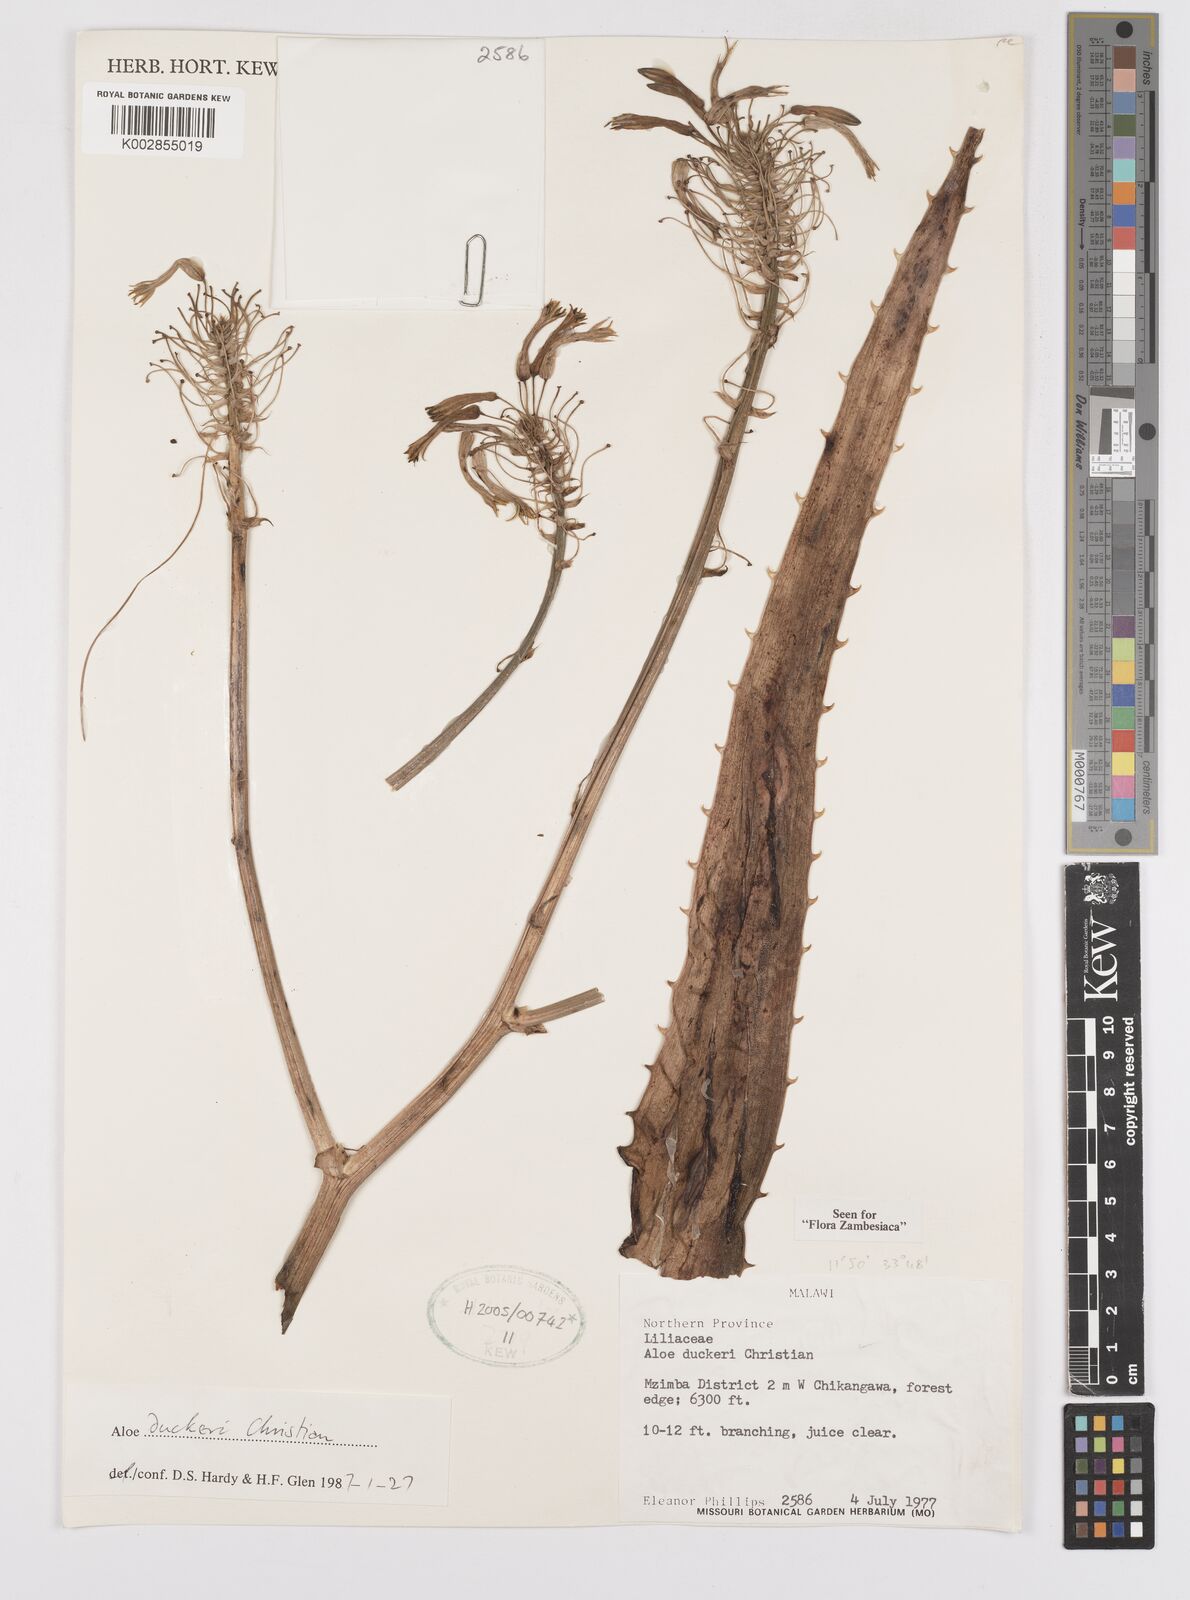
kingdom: Plantae
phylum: Tracheophyta
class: Liliopsida
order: Asparagales
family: Asphodelaceae
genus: Aloe
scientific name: Aloe duckeri
